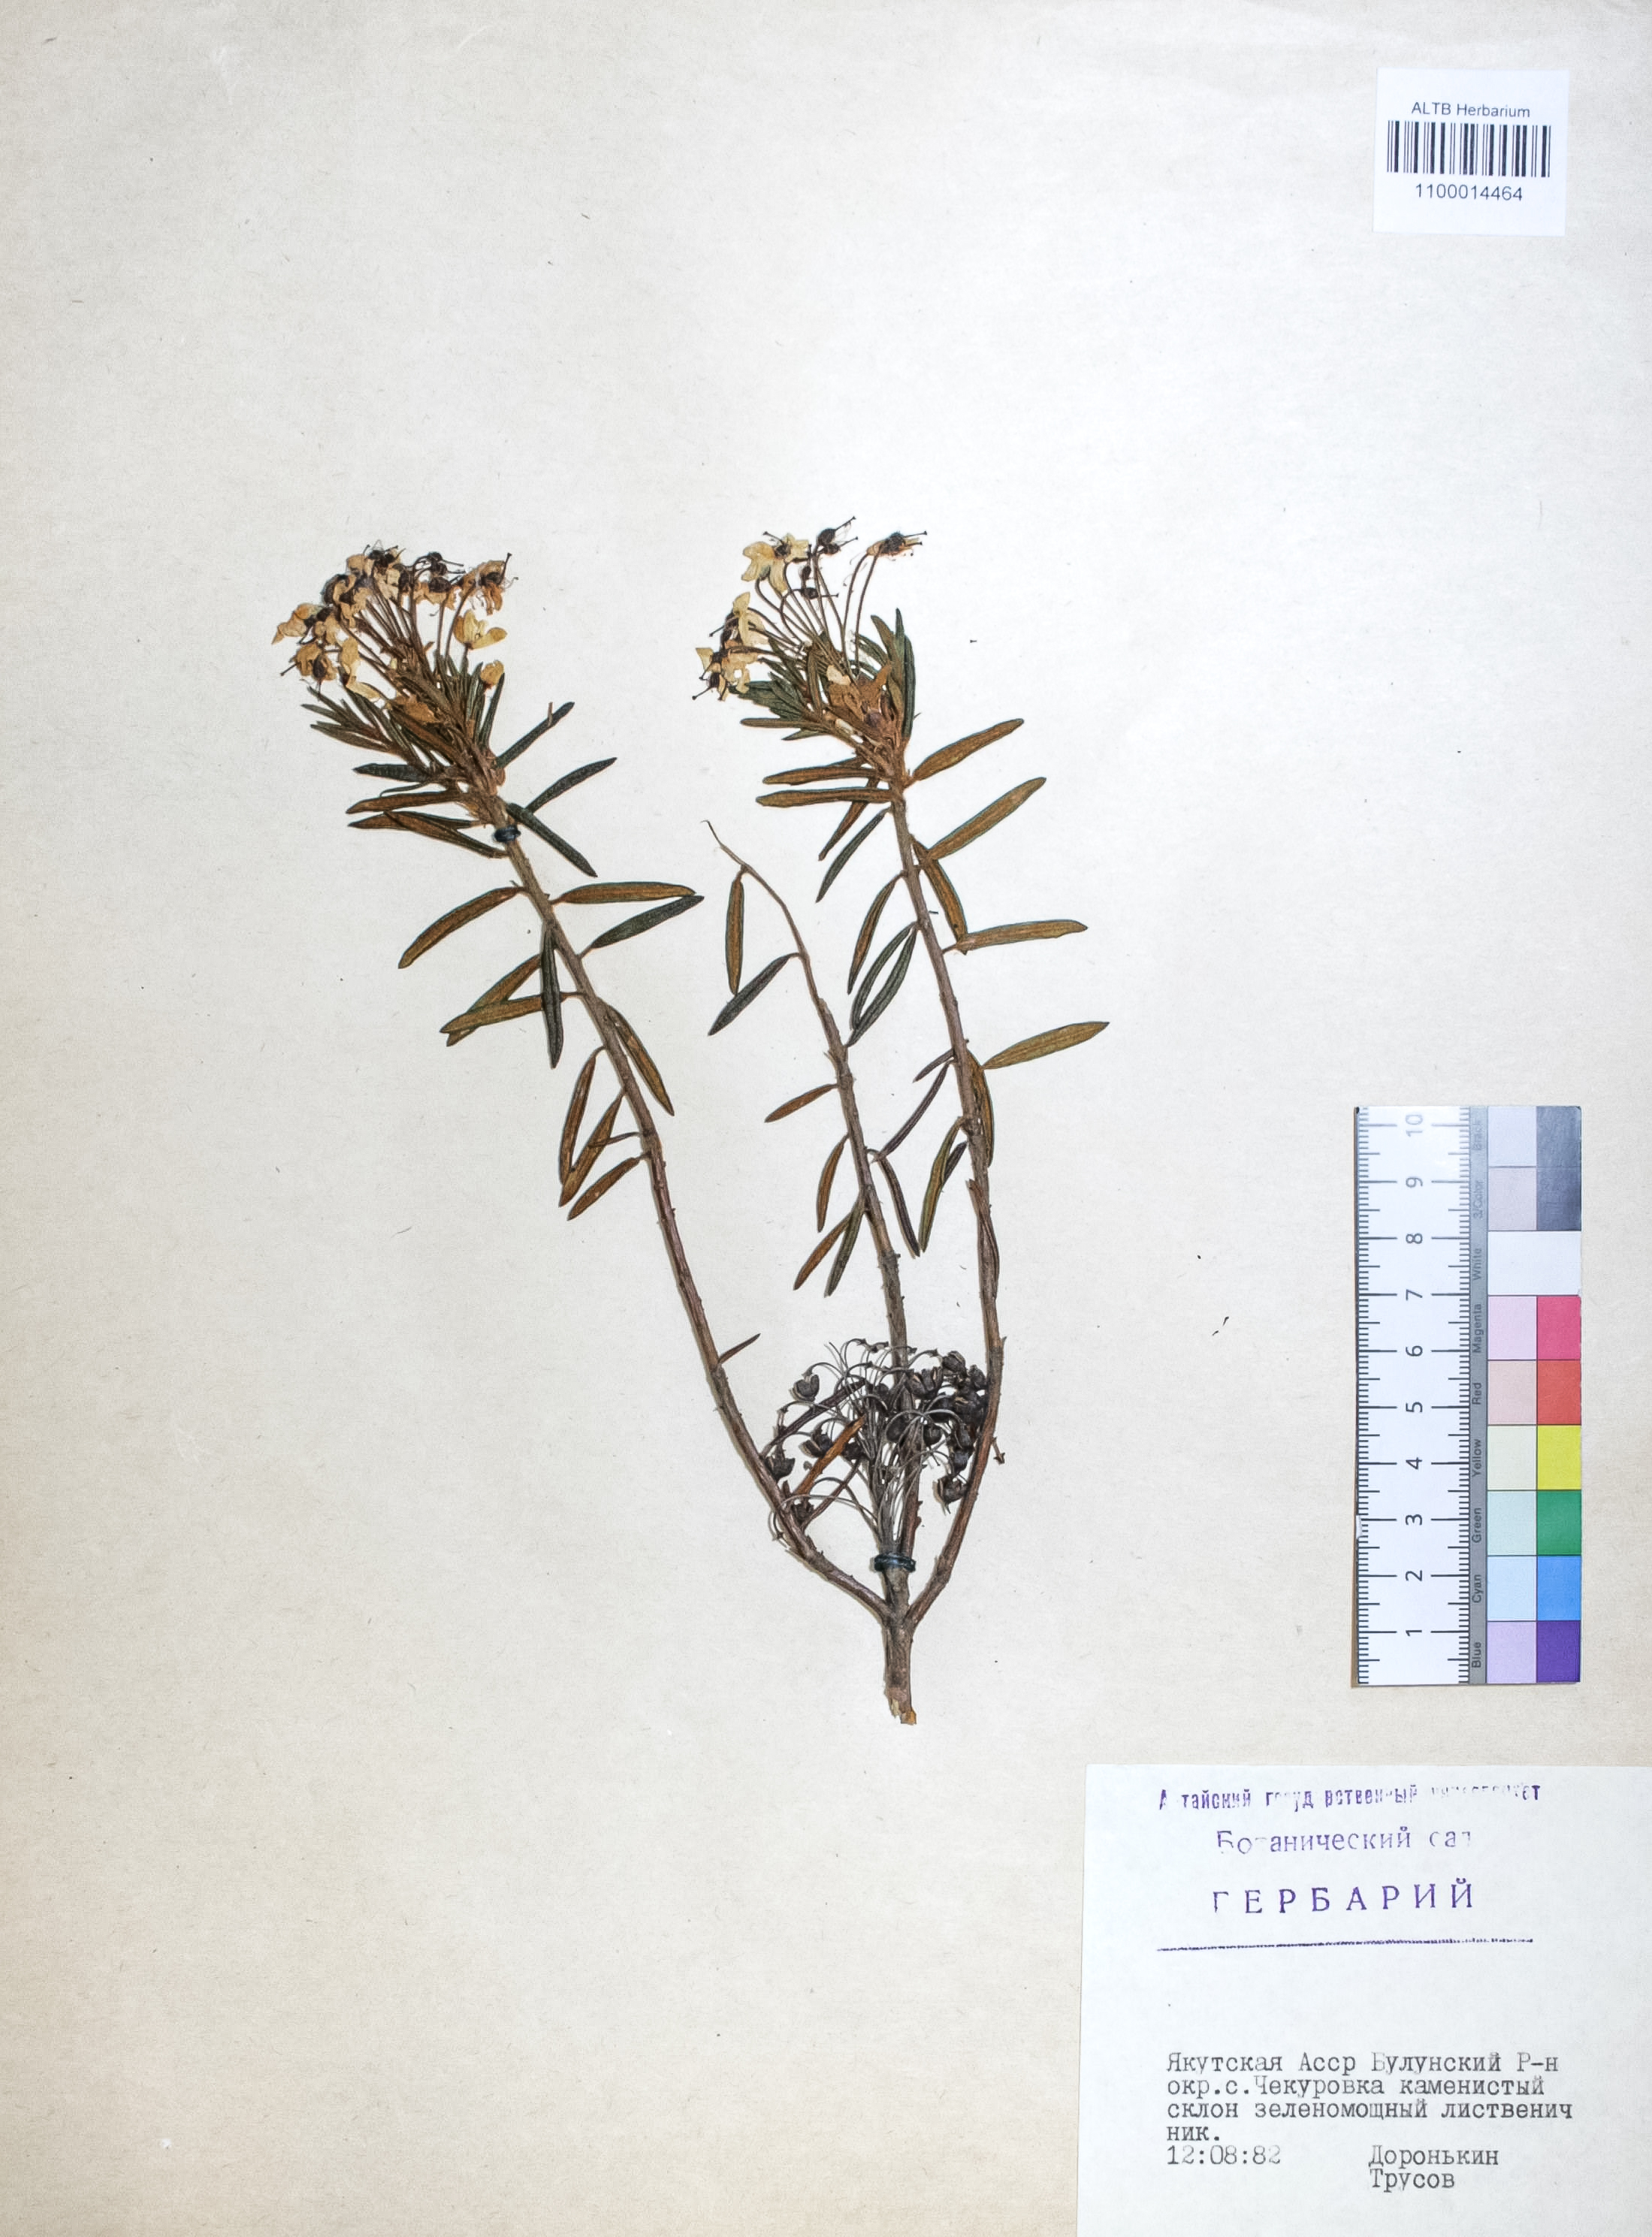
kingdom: Plantae
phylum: Tracheophyta
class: Magnoliopsida
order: Ericales
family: Ericaceae
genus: Rhododendron
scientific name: Rhododendron tomentosum
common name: Marsh labrador tea
